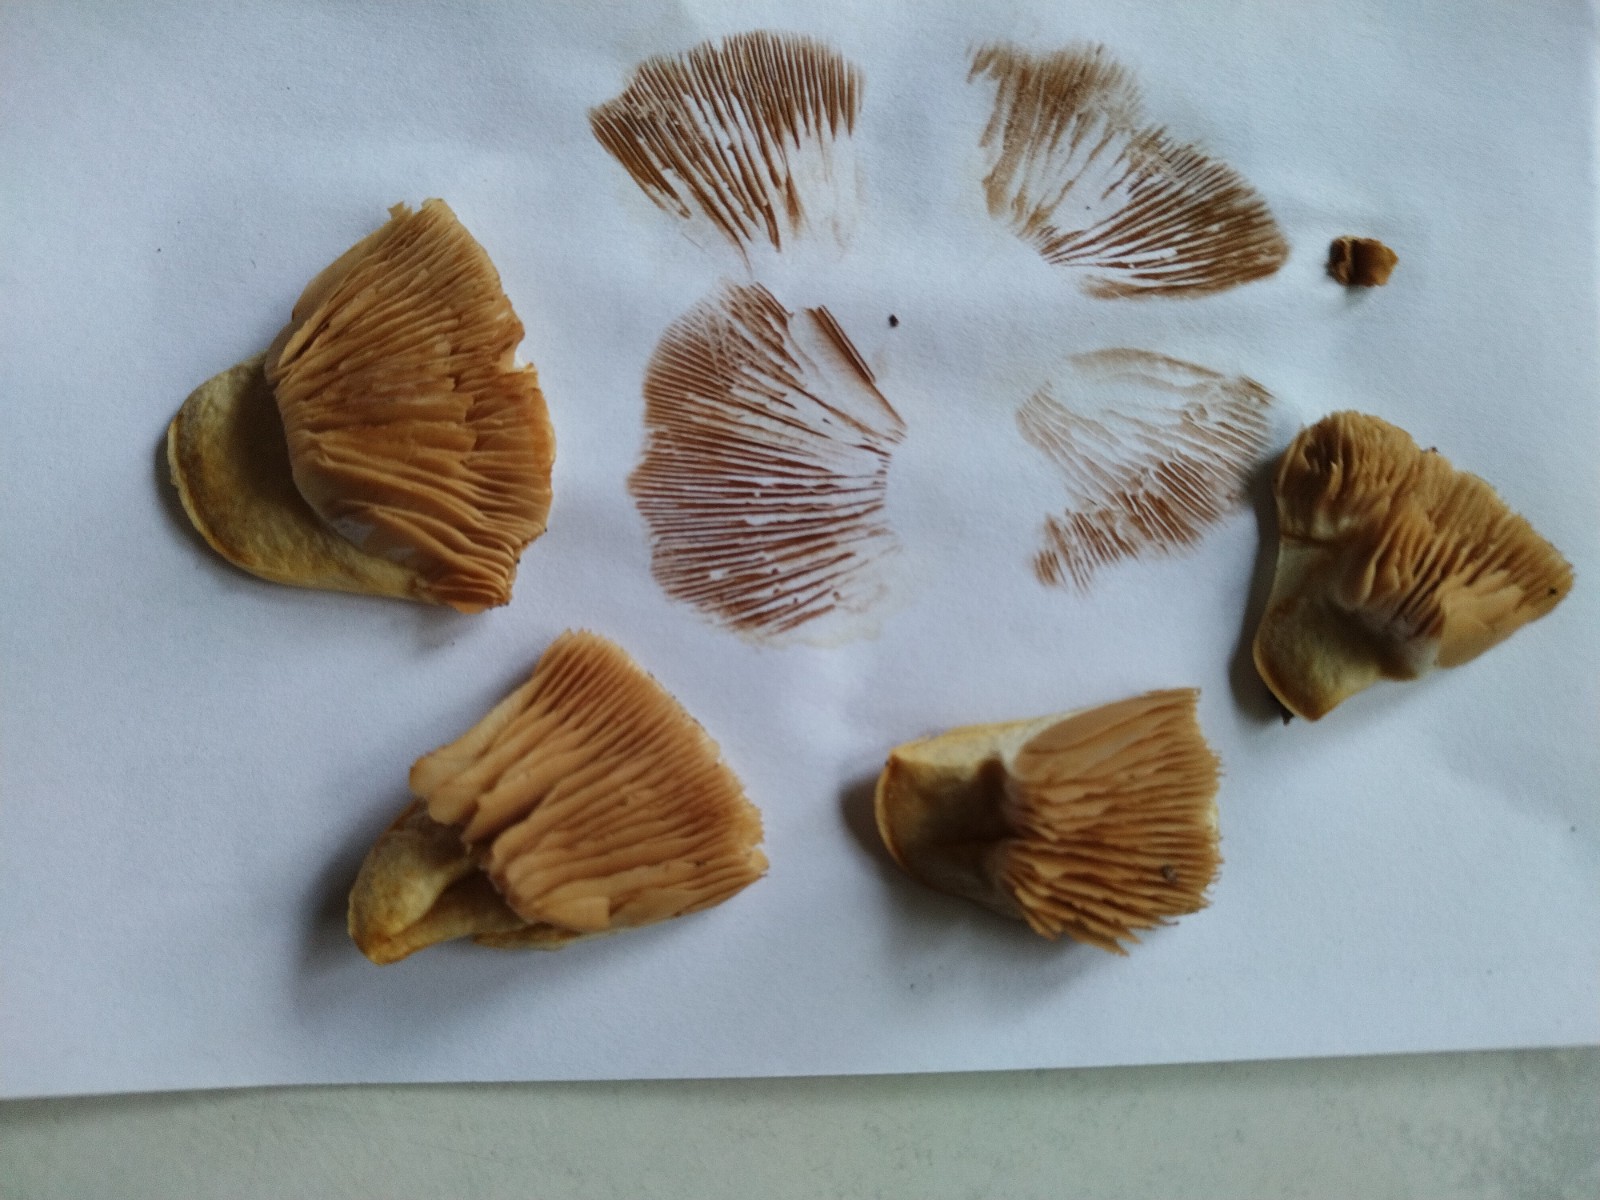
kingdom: Fungi
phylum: Basidiomycota
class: Agaricomycetes
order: Agaricales
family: Cortinariaceae
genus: Thaxterogaster
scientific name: Thaxterogaster barbatus
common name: elfenbens-slørhat
